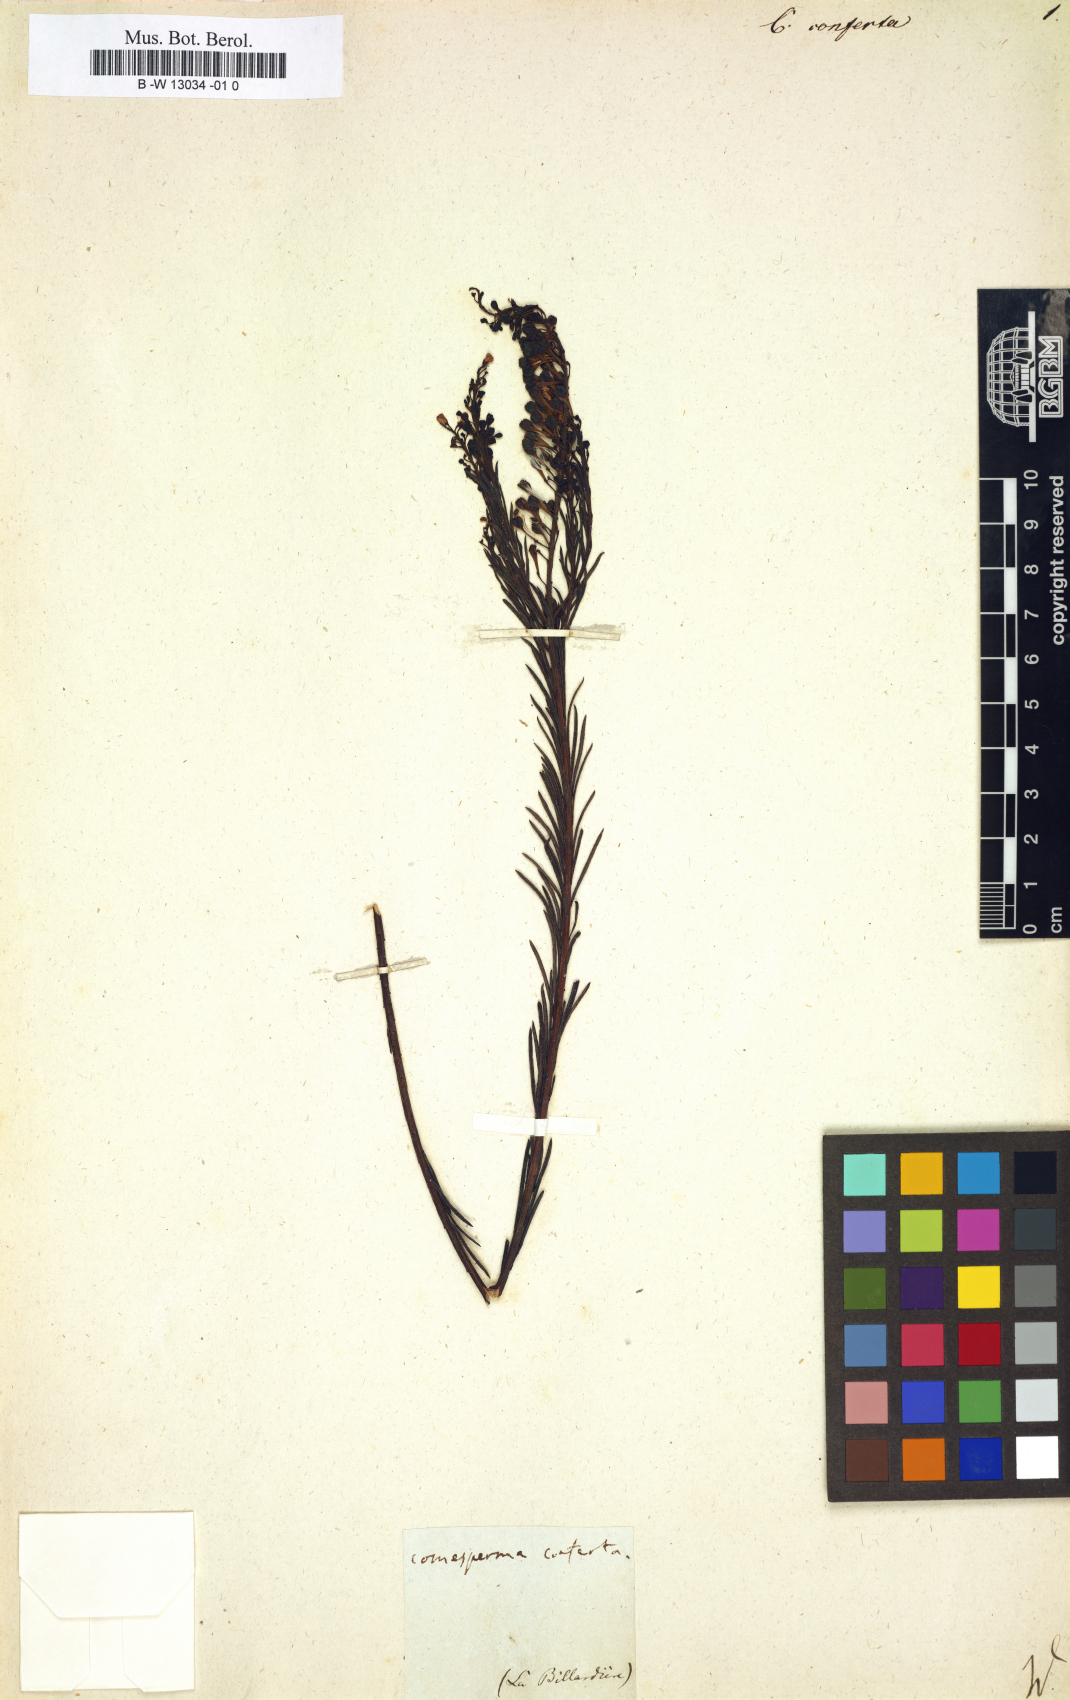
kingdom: Plantae
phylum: Tracheophyta
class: Magnoliopsida
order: Fabales
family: Polygalaceae
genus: Comesperma
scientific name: Comesperma confertum
